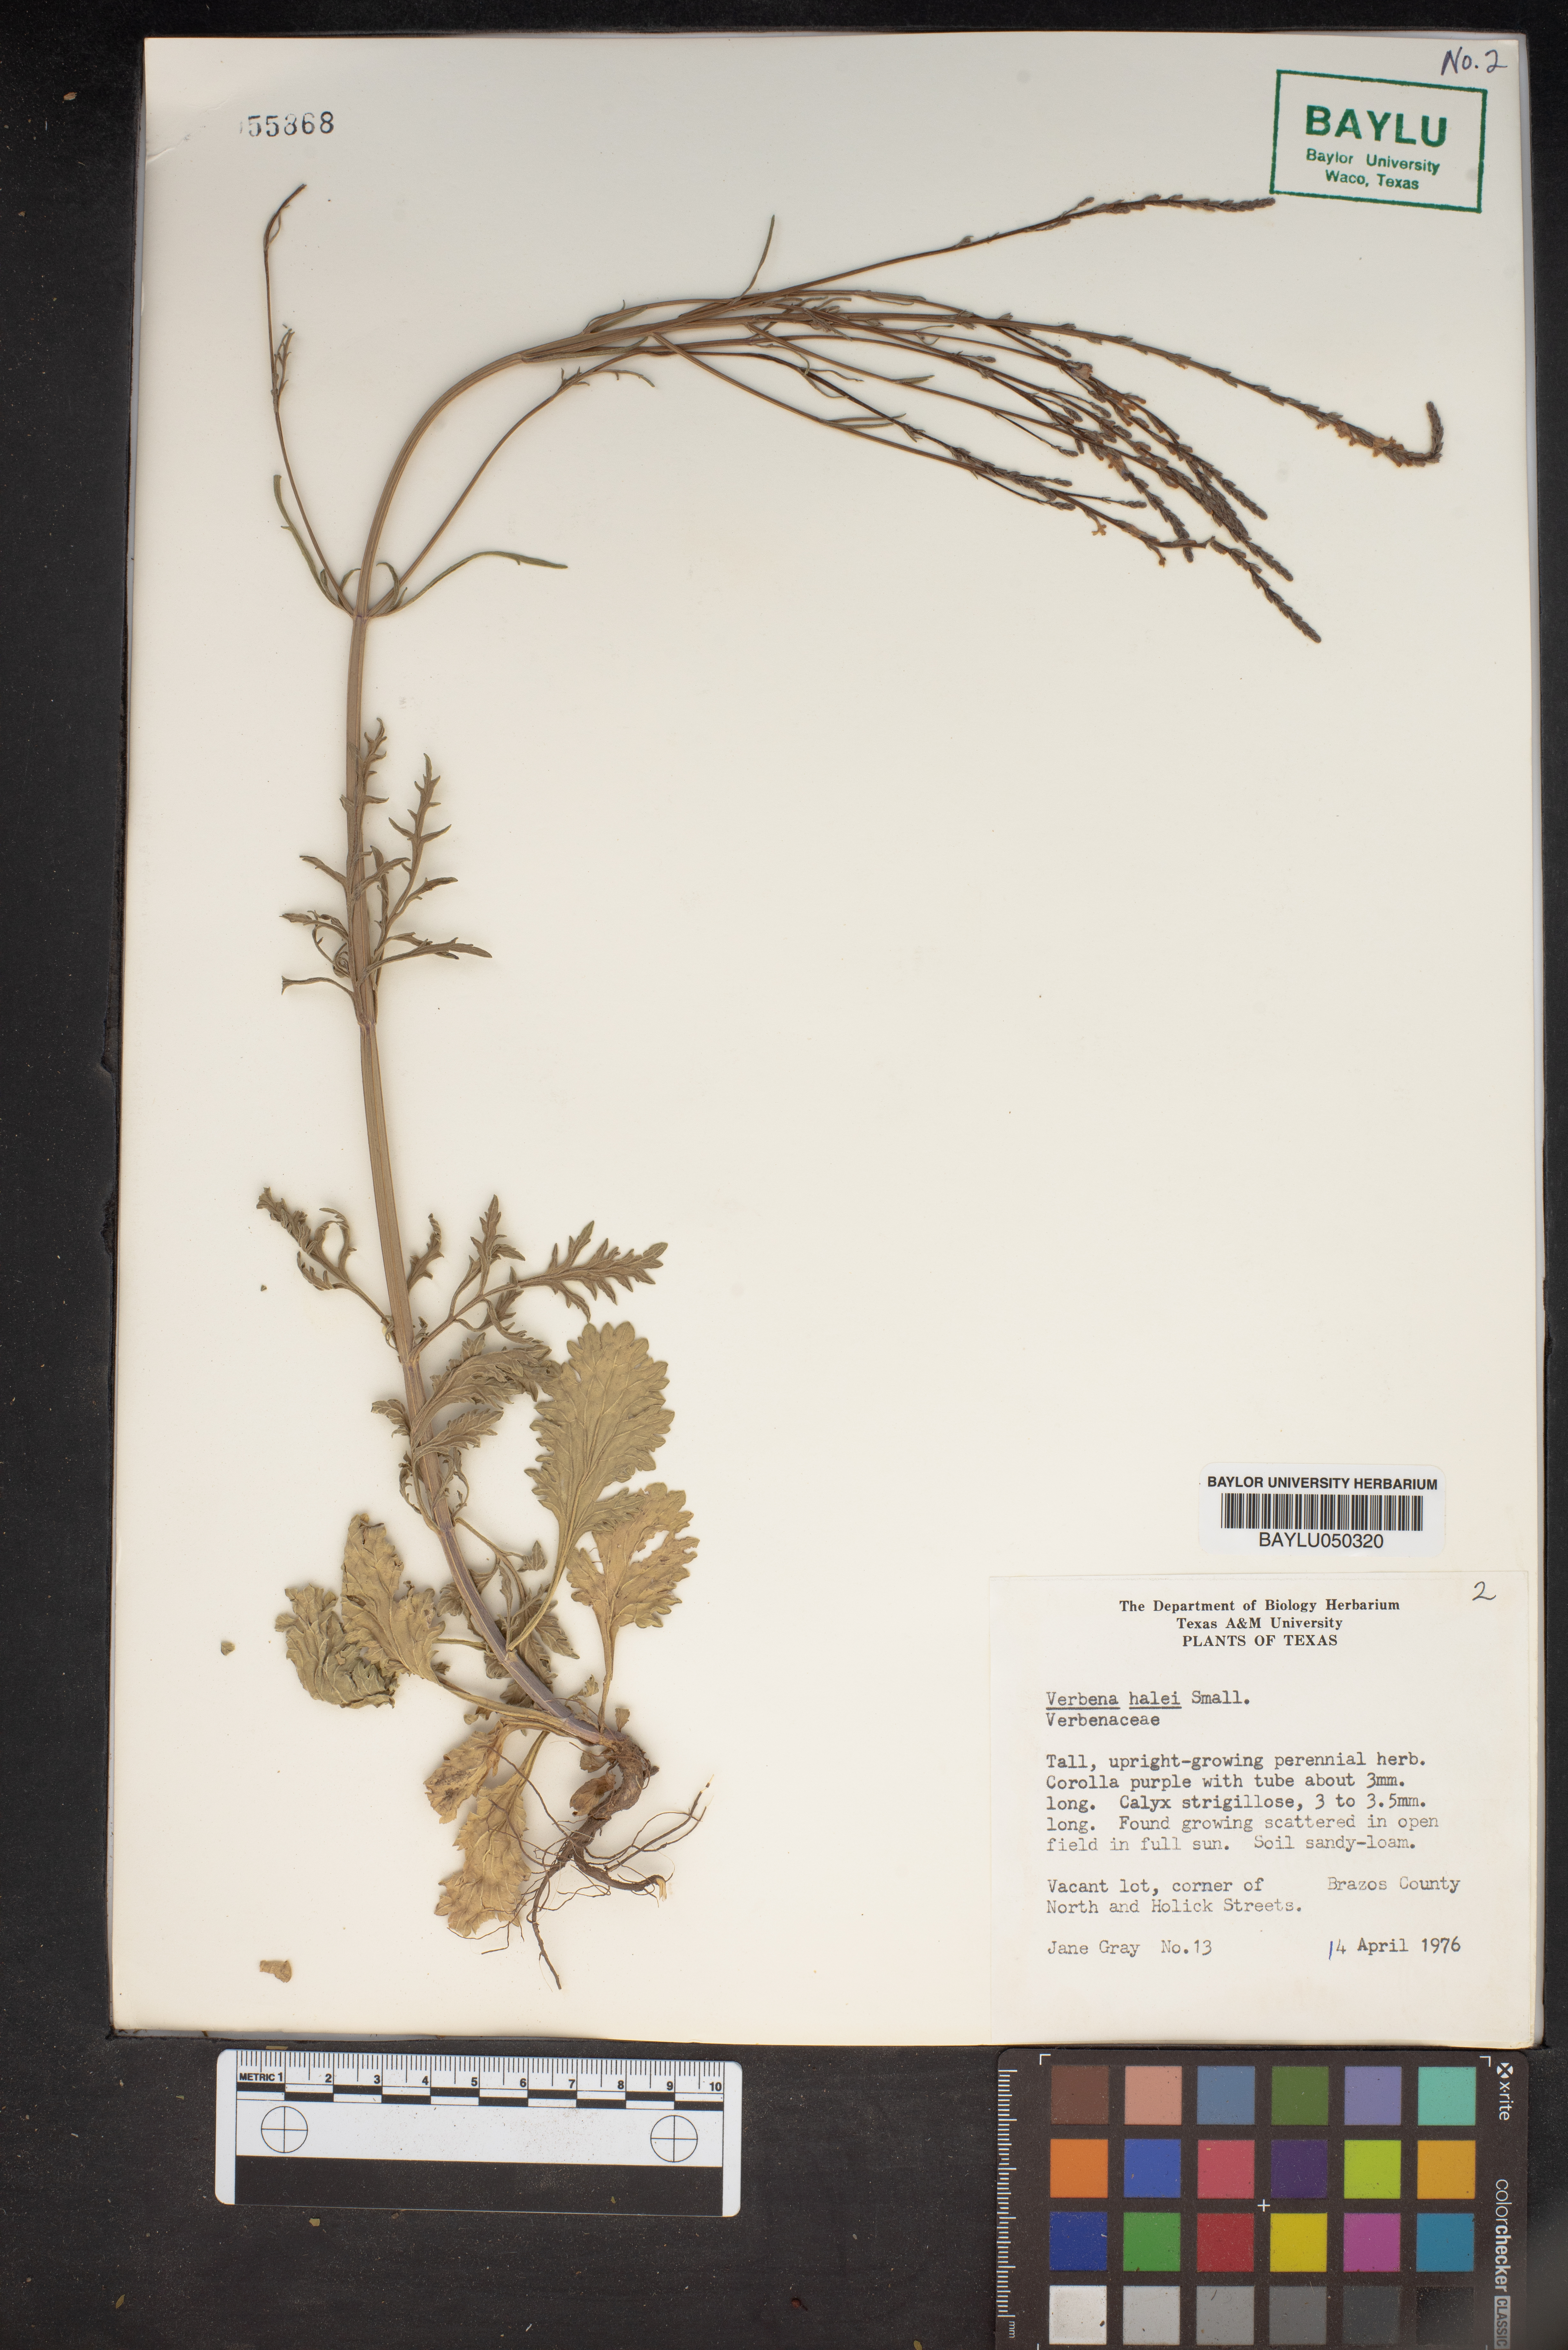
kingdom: Plantae
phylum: Tracheophyta
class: Magnoliopsida
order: Lamiales
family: Verbenaceae
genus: Verbena
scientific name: Verbena halei
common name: Texas vervain
